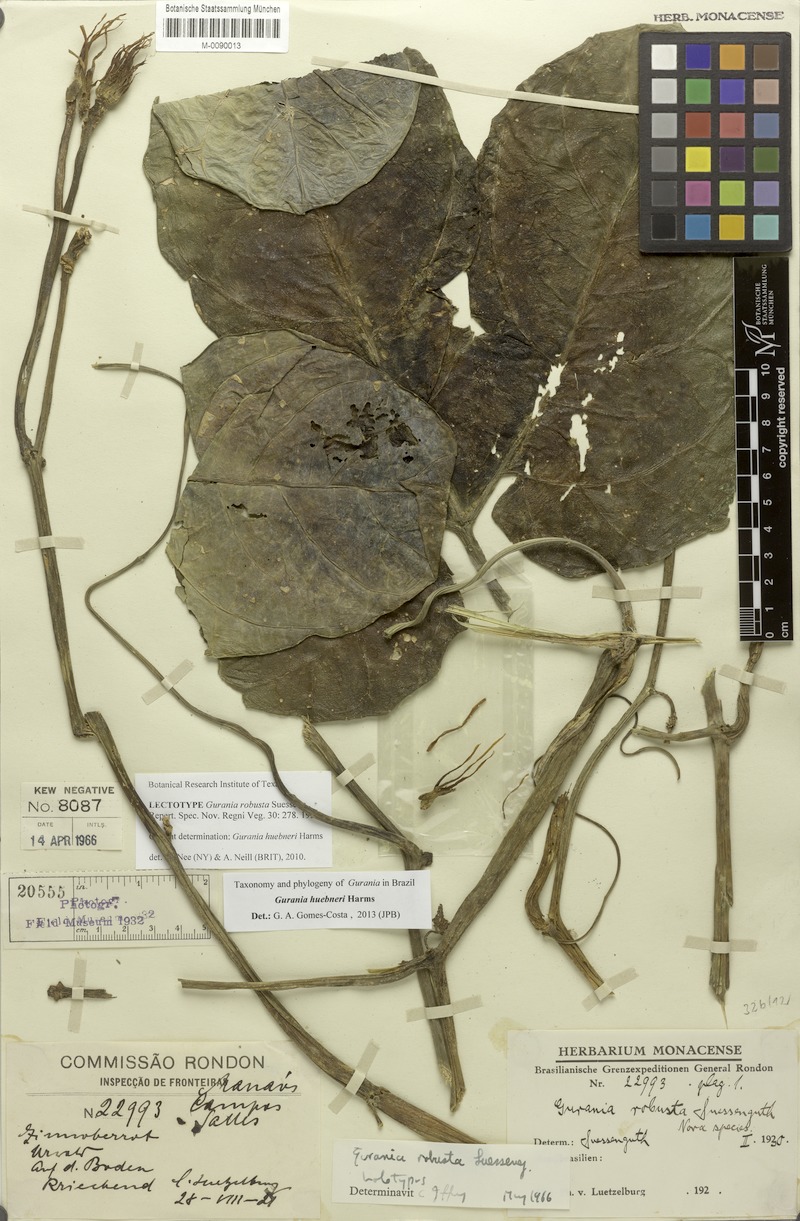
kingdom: Plantae
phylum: Tracheophyta
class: Magnoliopsida
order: Cucurbitales
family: Cucurbitaceae
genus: Gurania
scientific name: Gurania huebneri
